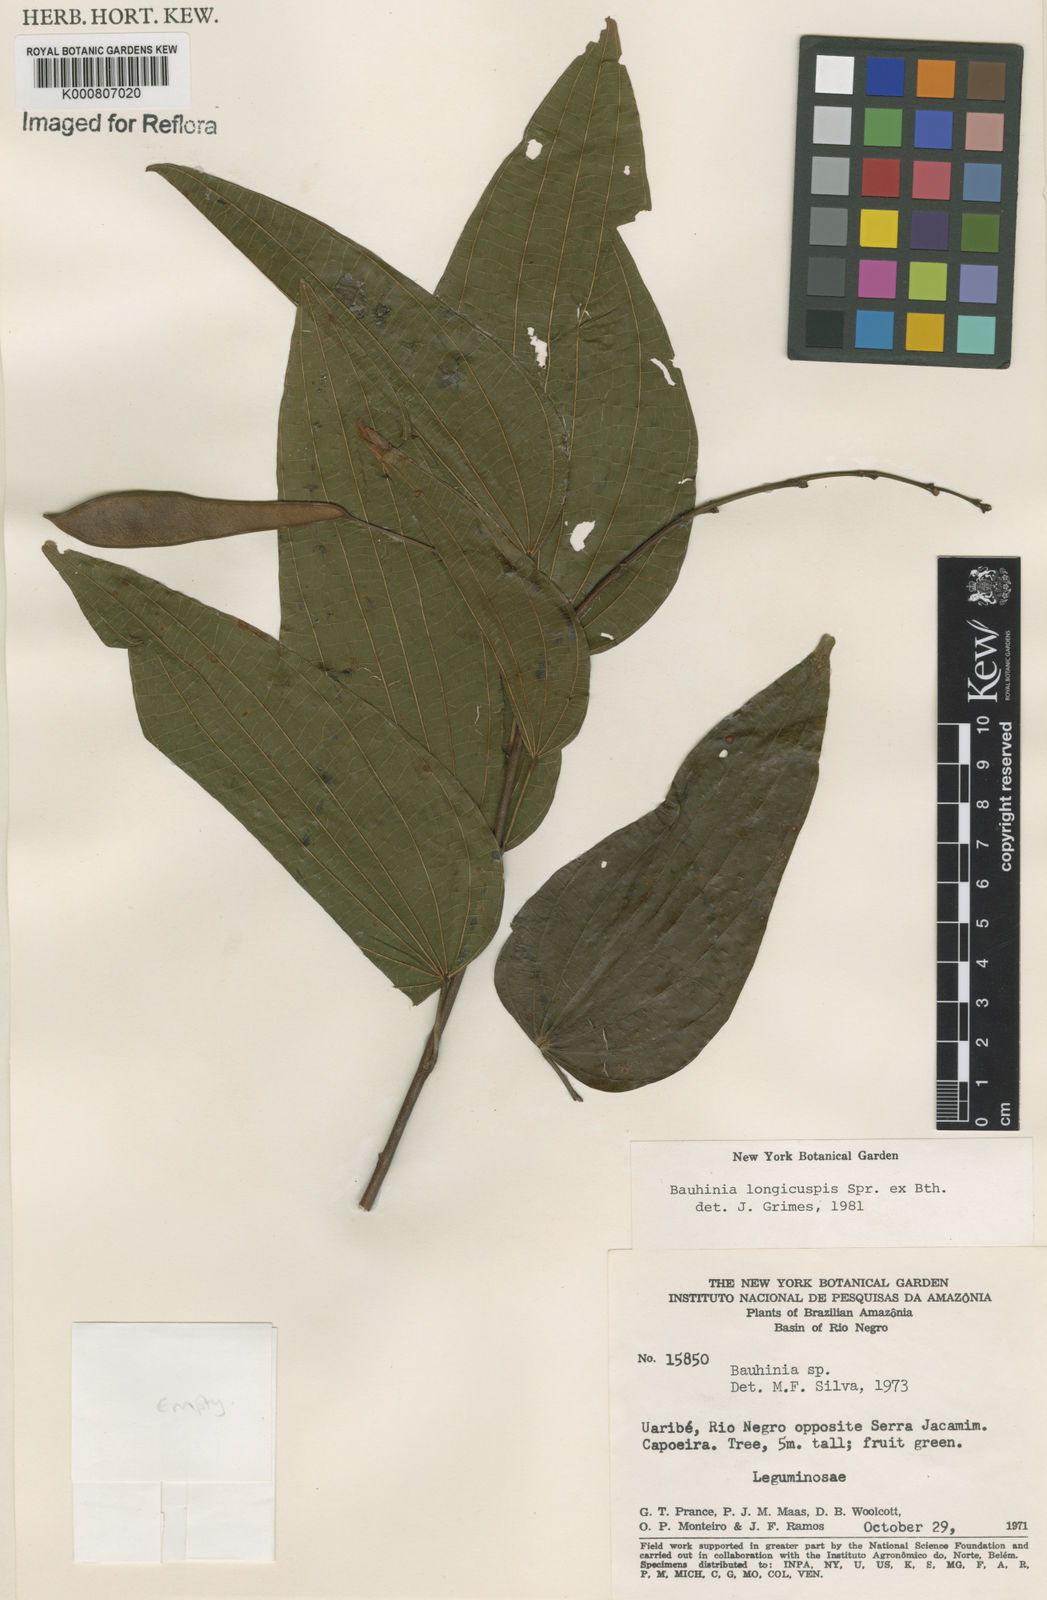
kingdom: Plantae
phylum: Tracheophyta
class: Magnoliopsida
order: Fabales
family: Fabaceae
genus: Bauhinia
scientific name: Bauhinia longicuspis
